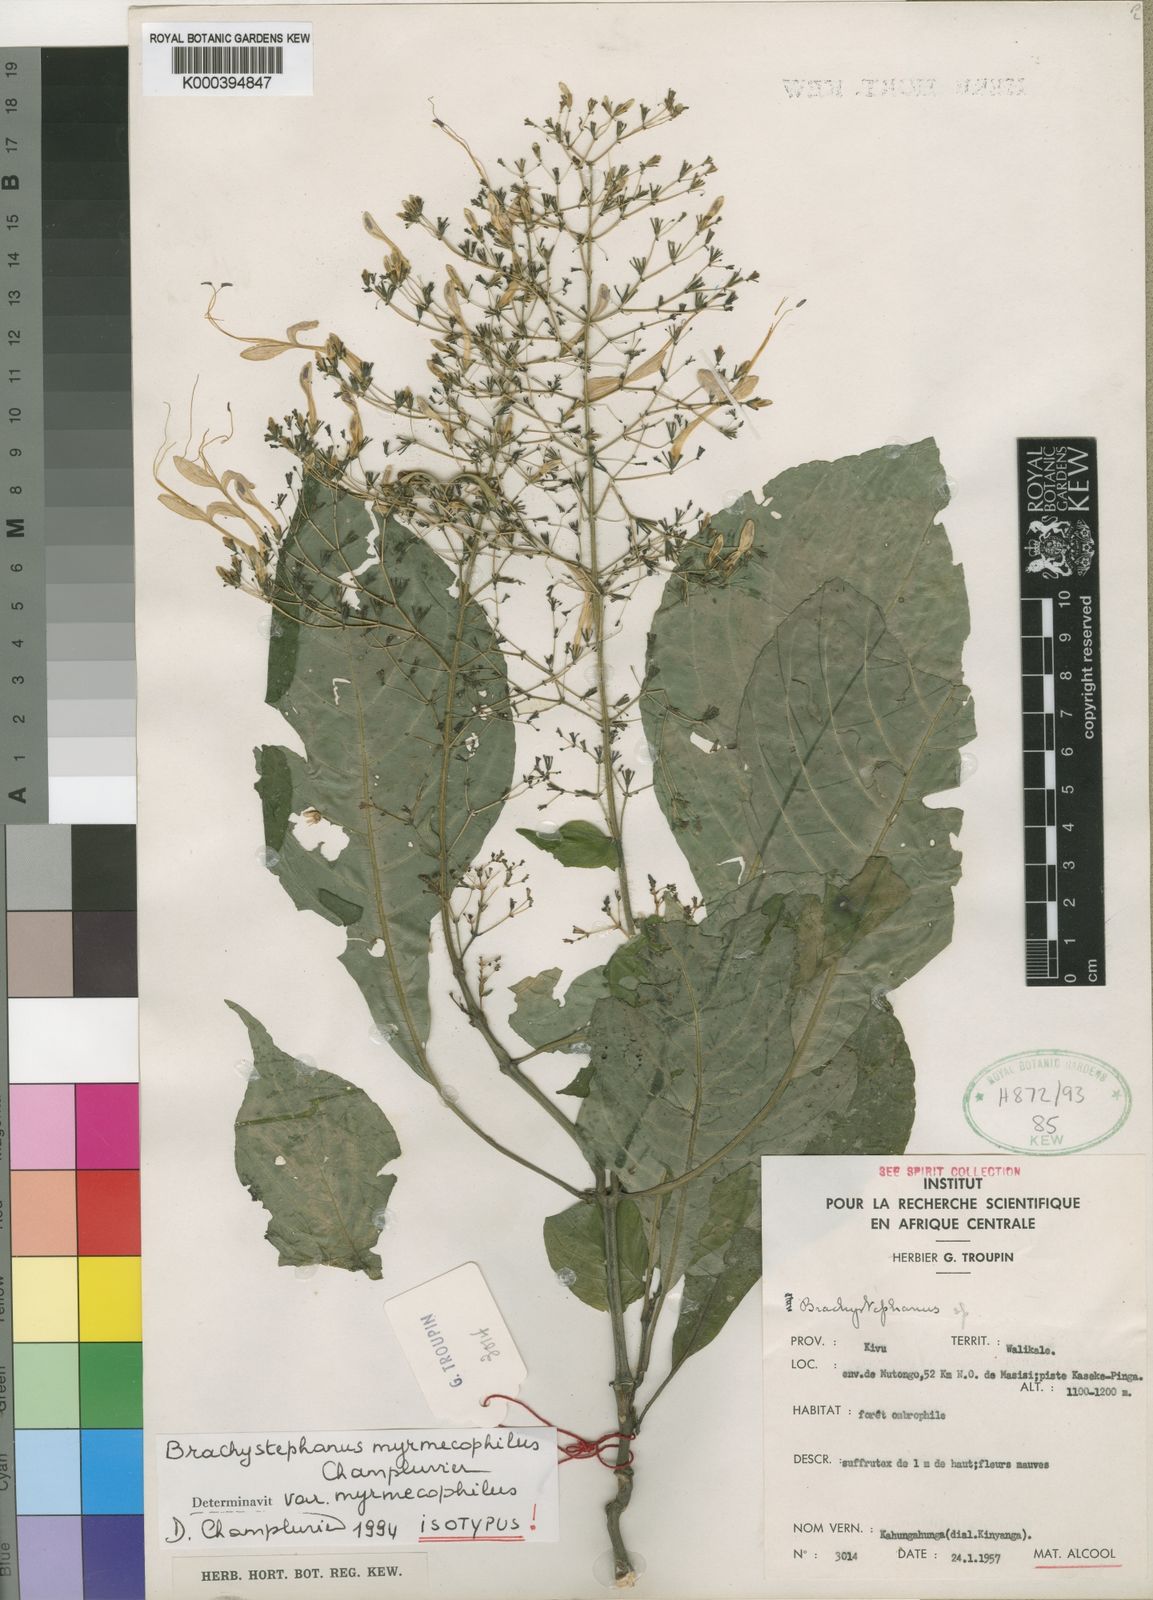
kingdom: Plantae
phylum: Tracheophyta
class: Magnoliopsida
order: Lamiales
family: Acanthaceae
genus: Brachystephanus
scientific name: Brachystephanus myrmecophilus
